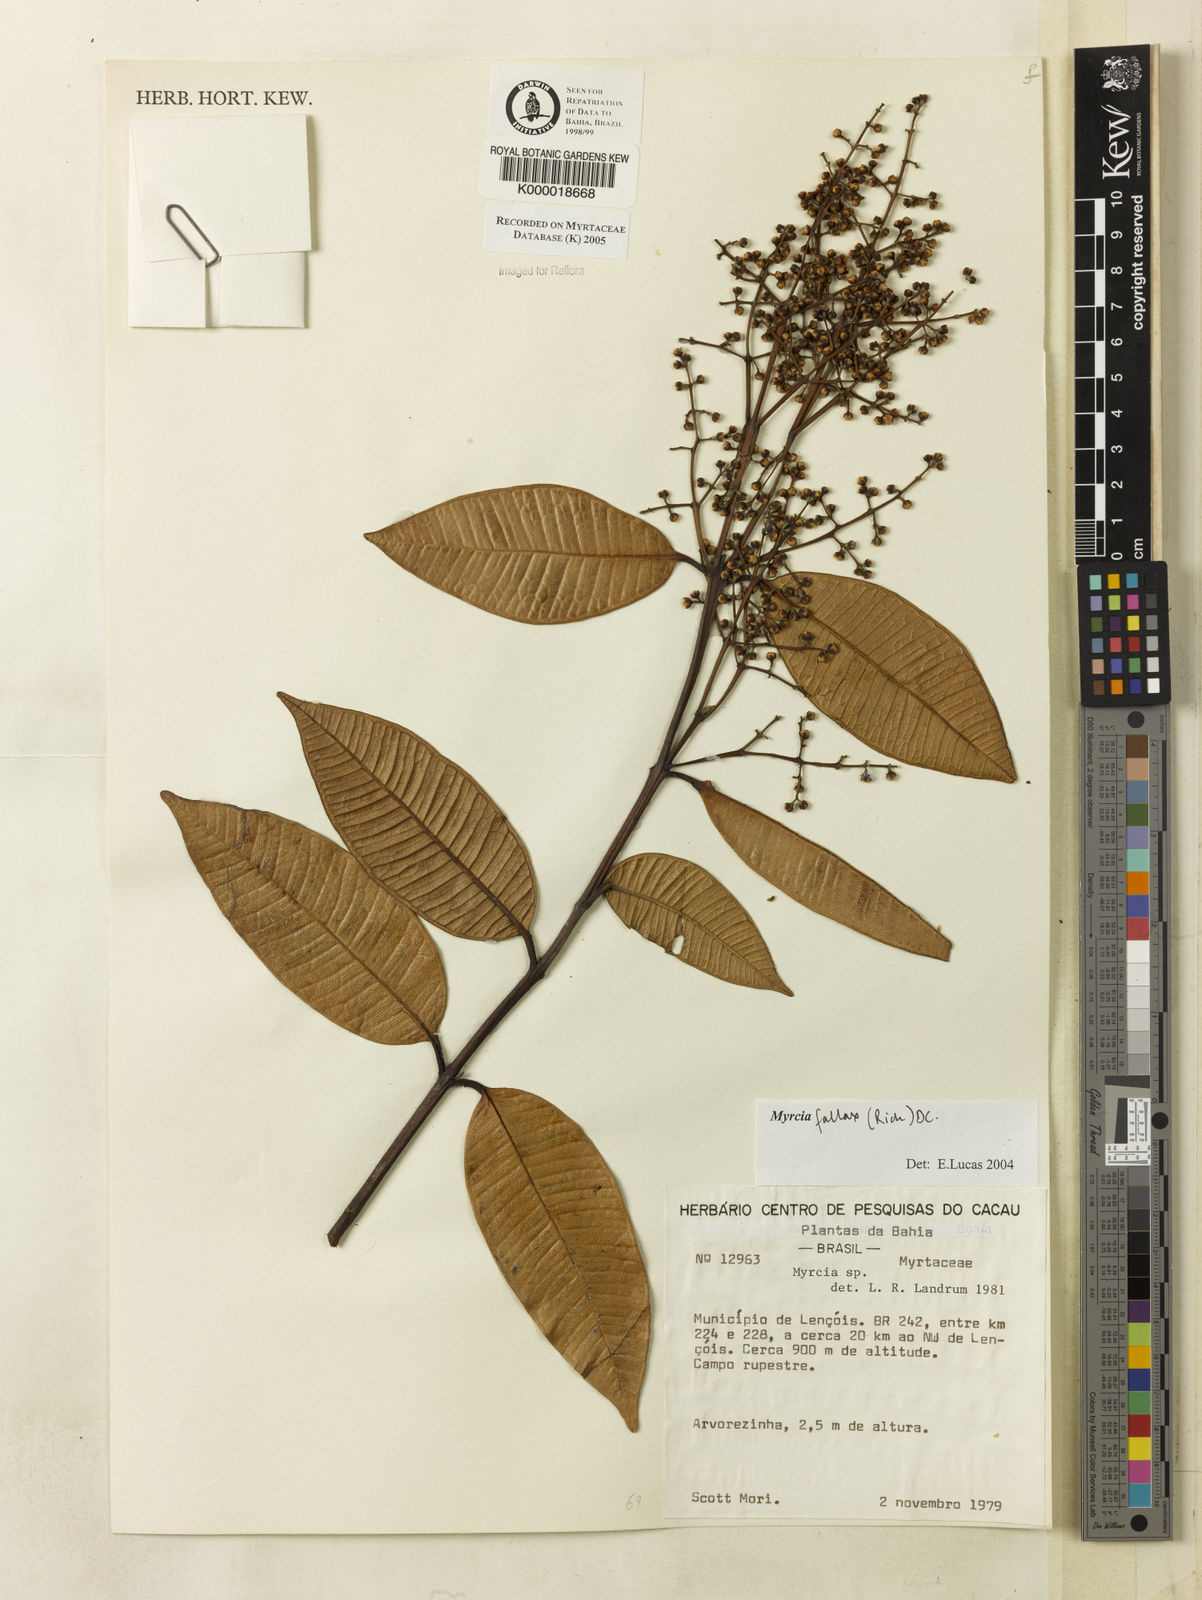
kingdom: Plantae
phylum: Tracheophyta
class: Magnoliopsida
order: Myrtales
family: Myrtaceae
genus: Myrcia
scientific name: Myrcia splendens
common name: Surinam cherry
